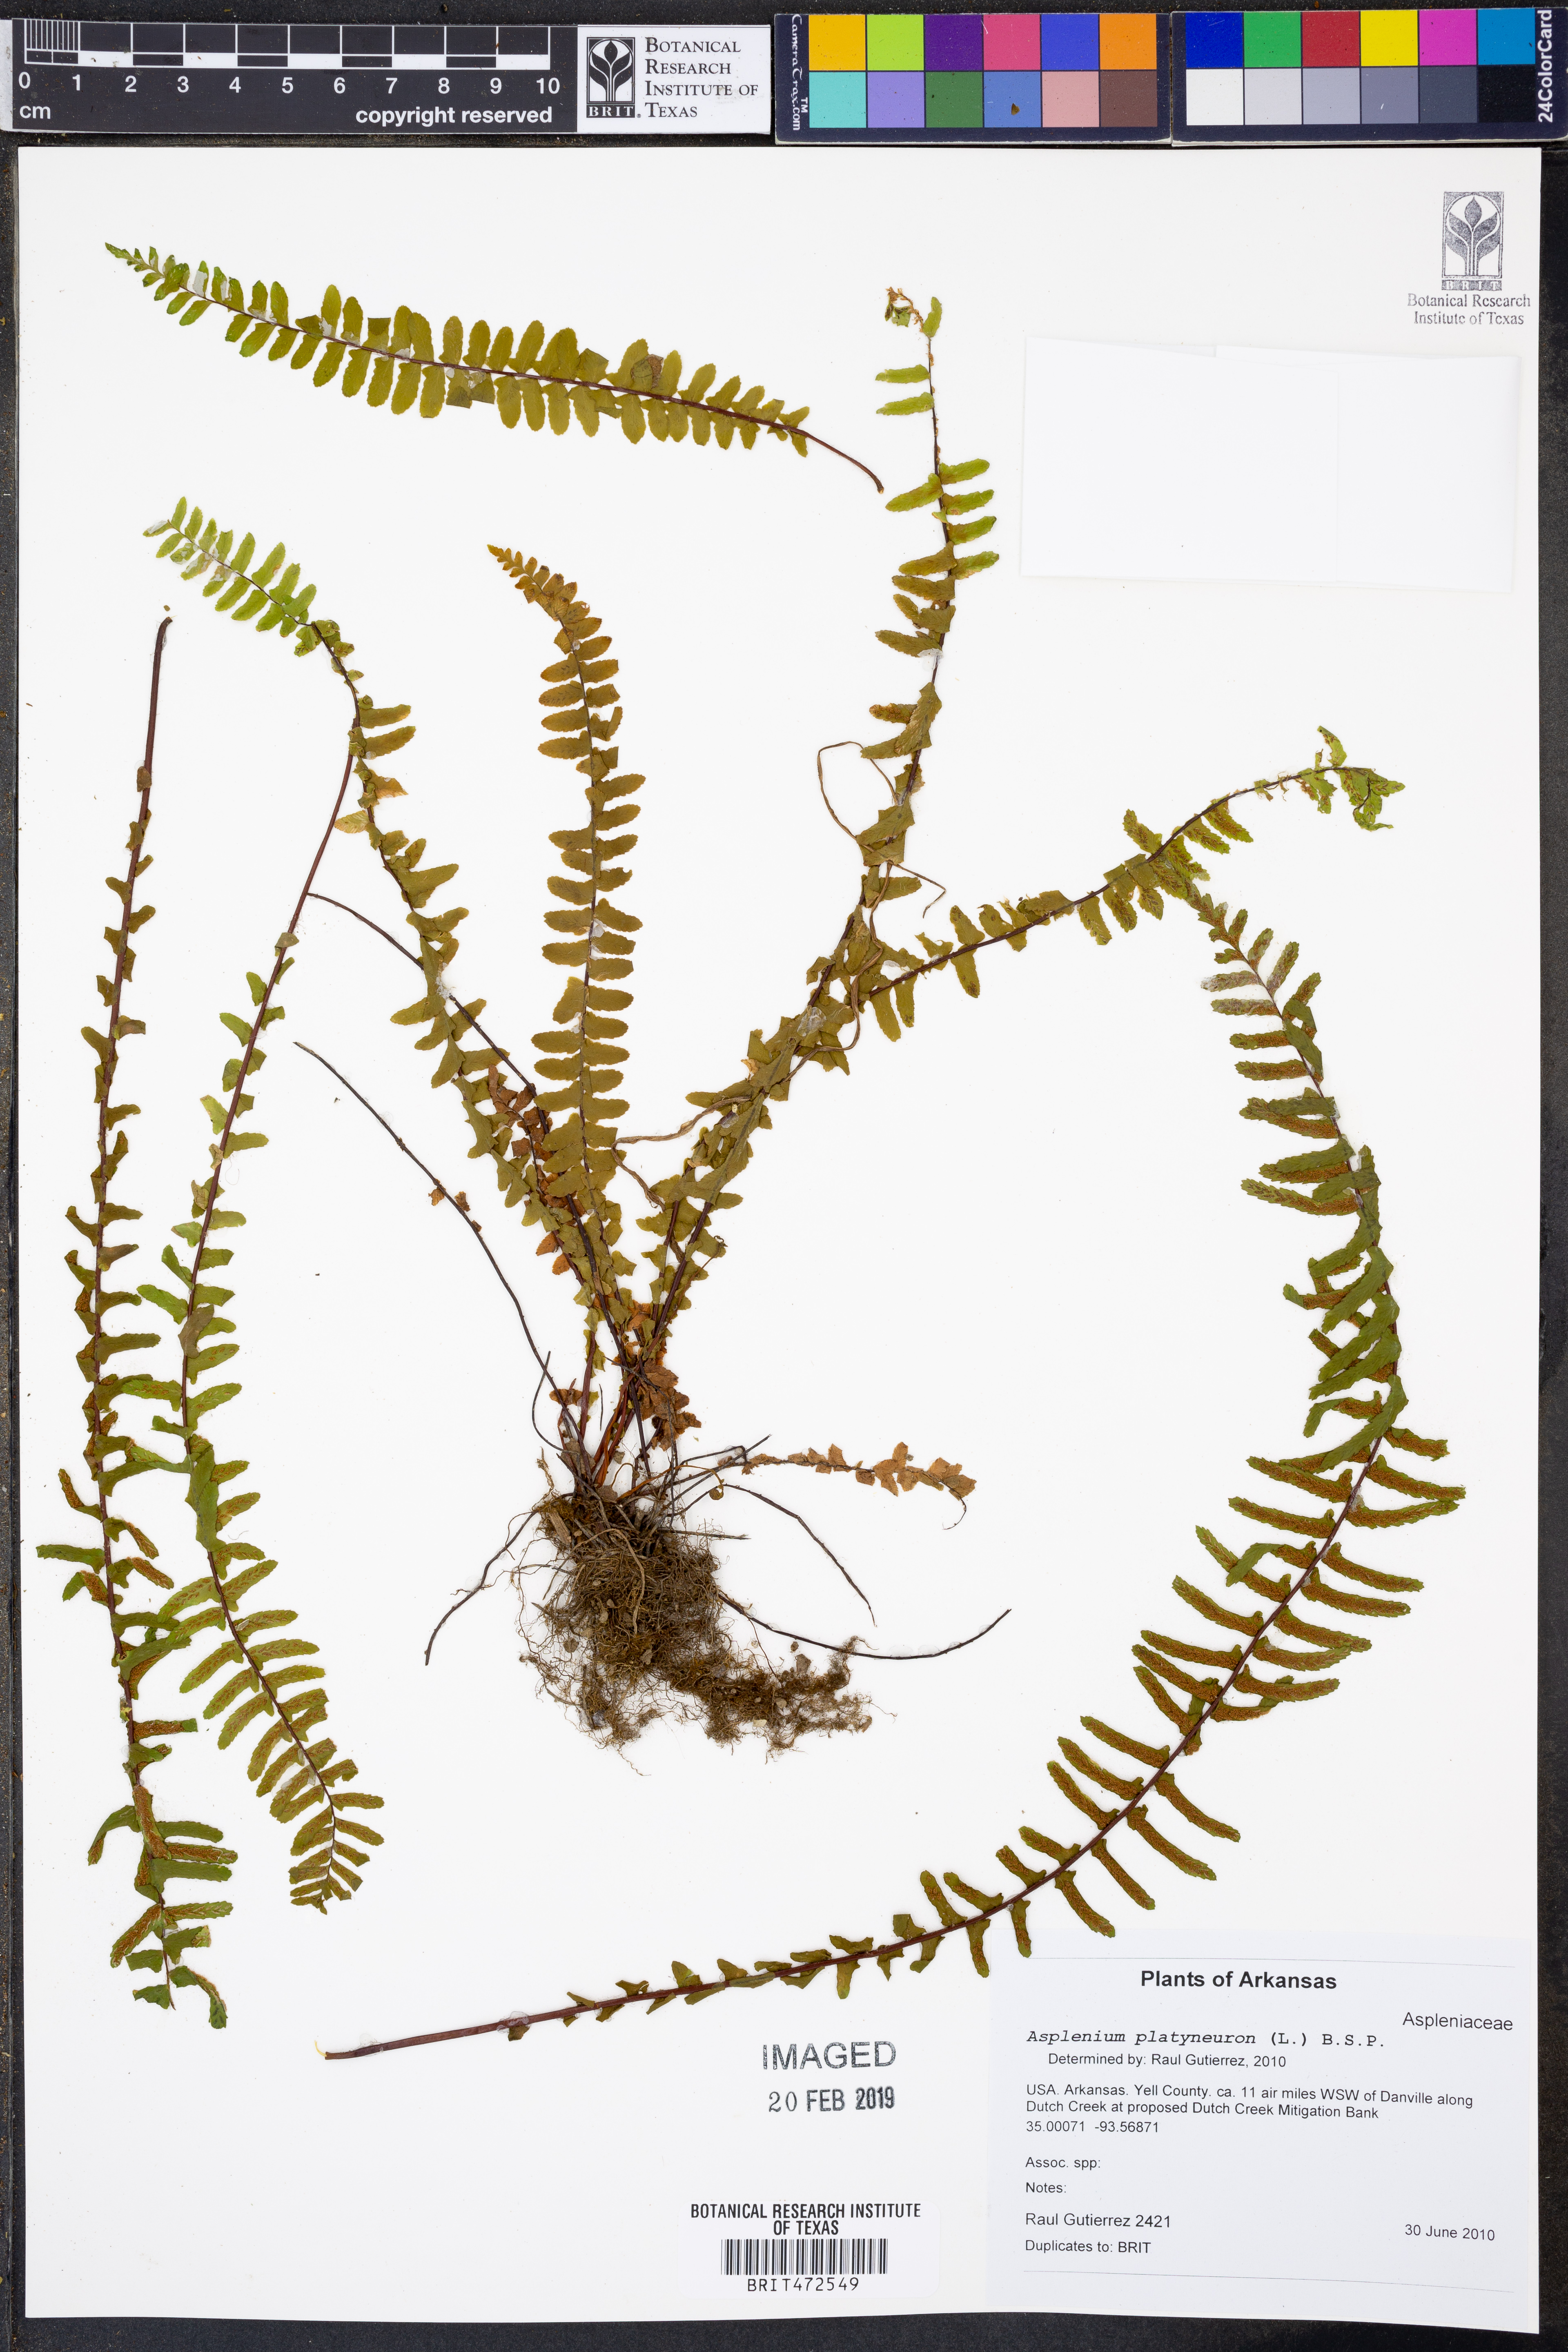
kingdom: Plantae
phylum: Tracheophyta
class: Polypodiopsida
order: Polypodiales
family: Aspleniaceae
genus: Asplenium
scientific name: Asplenium platyneuron
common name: Ebony spleenwort
